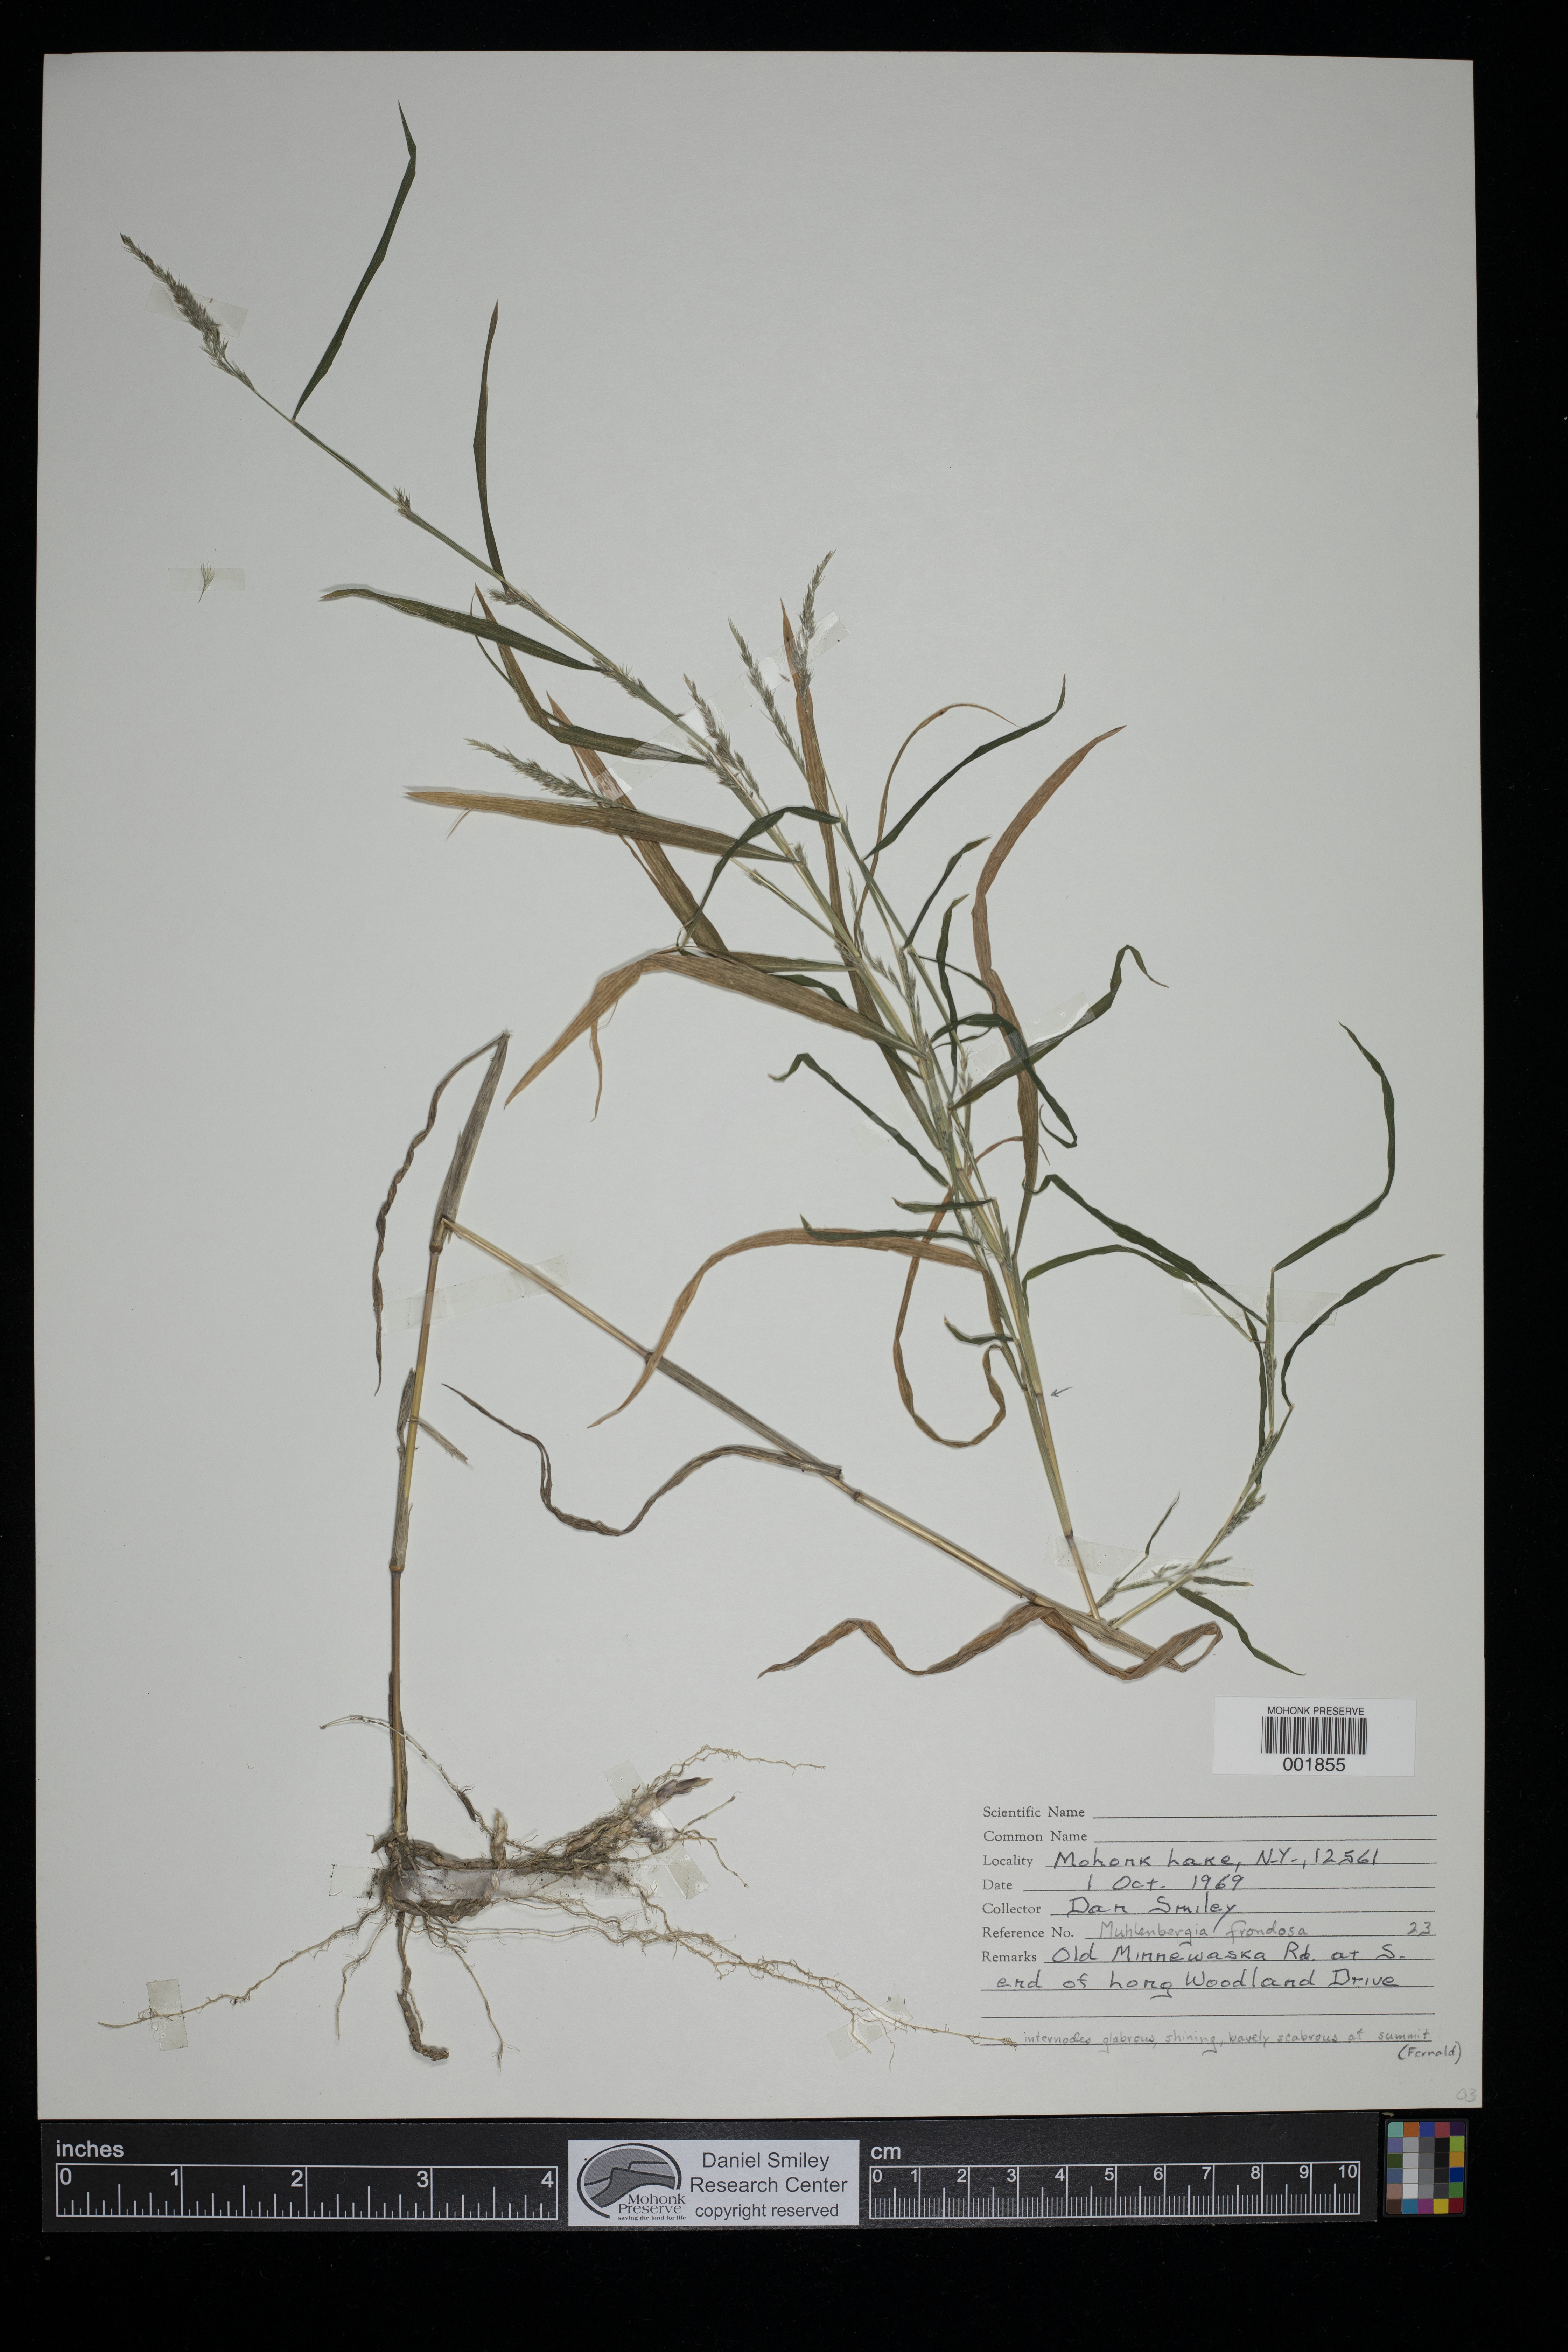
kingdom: Plantae
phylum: Tracheophyta
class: Liliopsida
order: Poales
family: Poaceae
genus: Muhlenbergia
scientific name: Muhlenbergia frondosa
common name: Common satingrass
